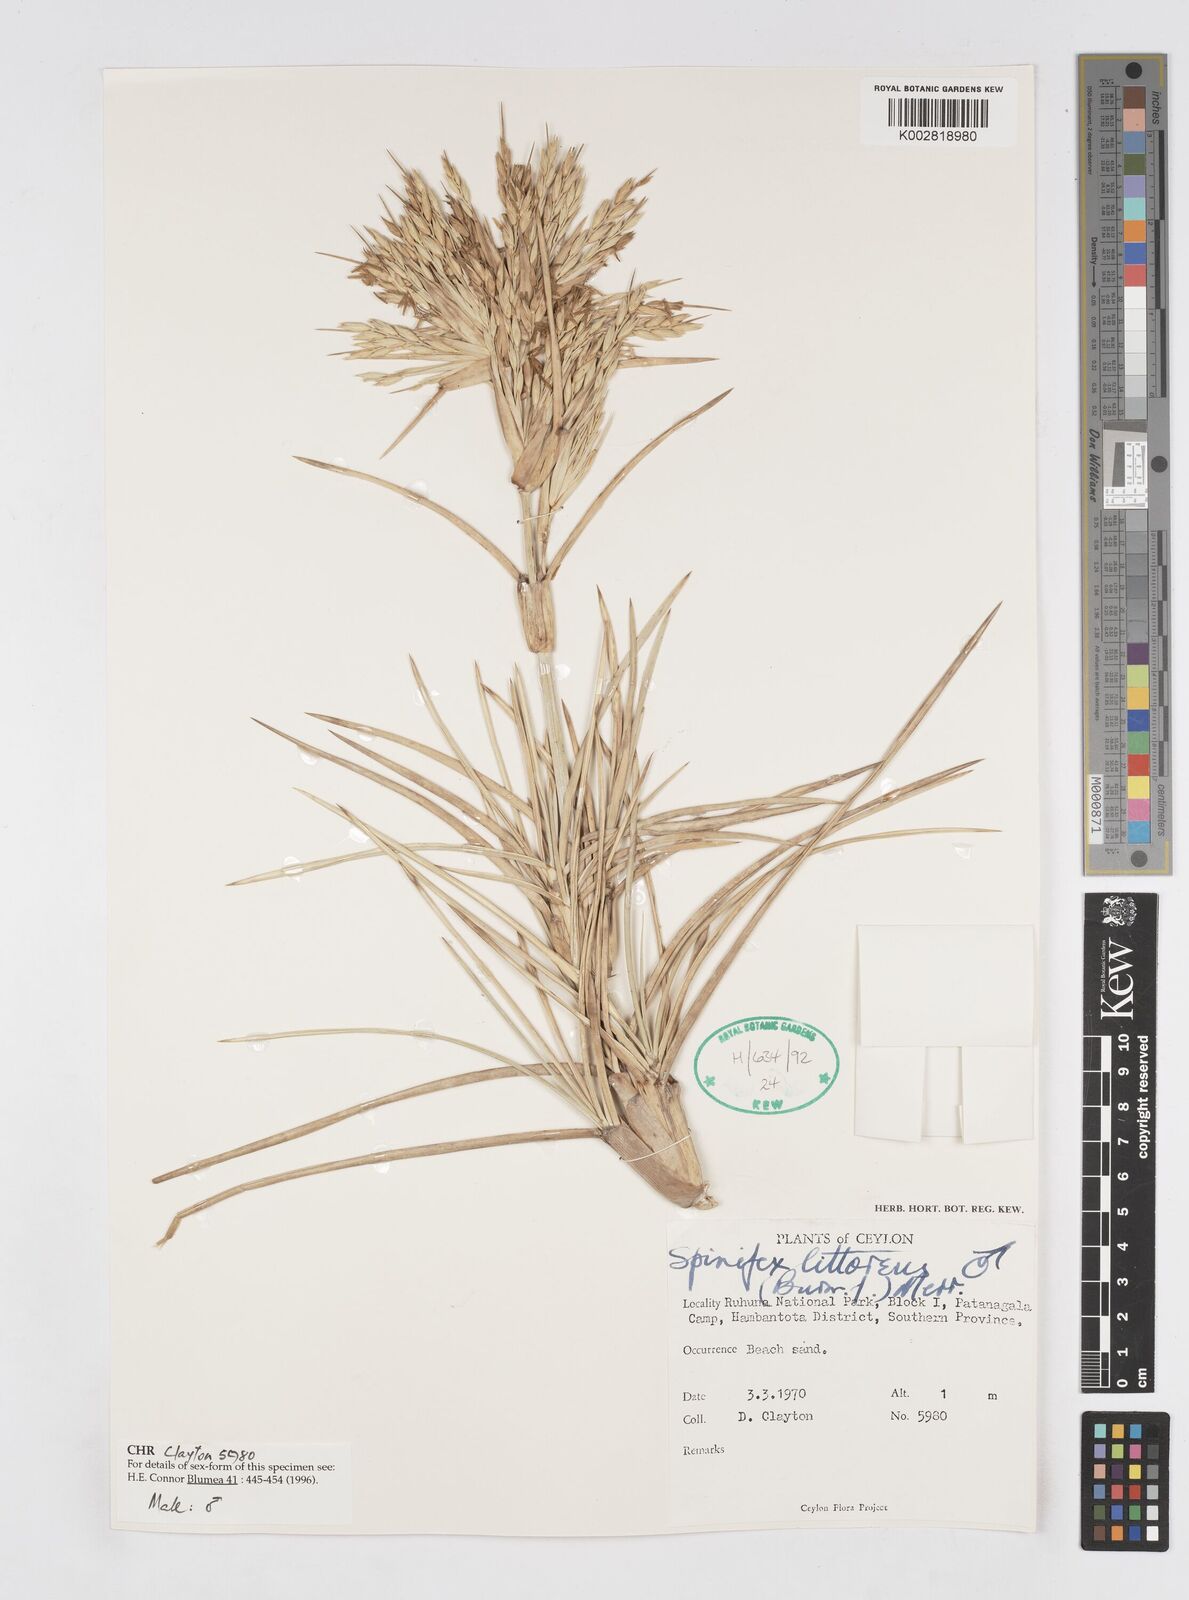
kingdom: Plantae
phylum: Tracheophyta
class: Liliopsida
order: Poales
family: Poaceae
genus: Spinifex
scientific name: Spinifex littoreus
